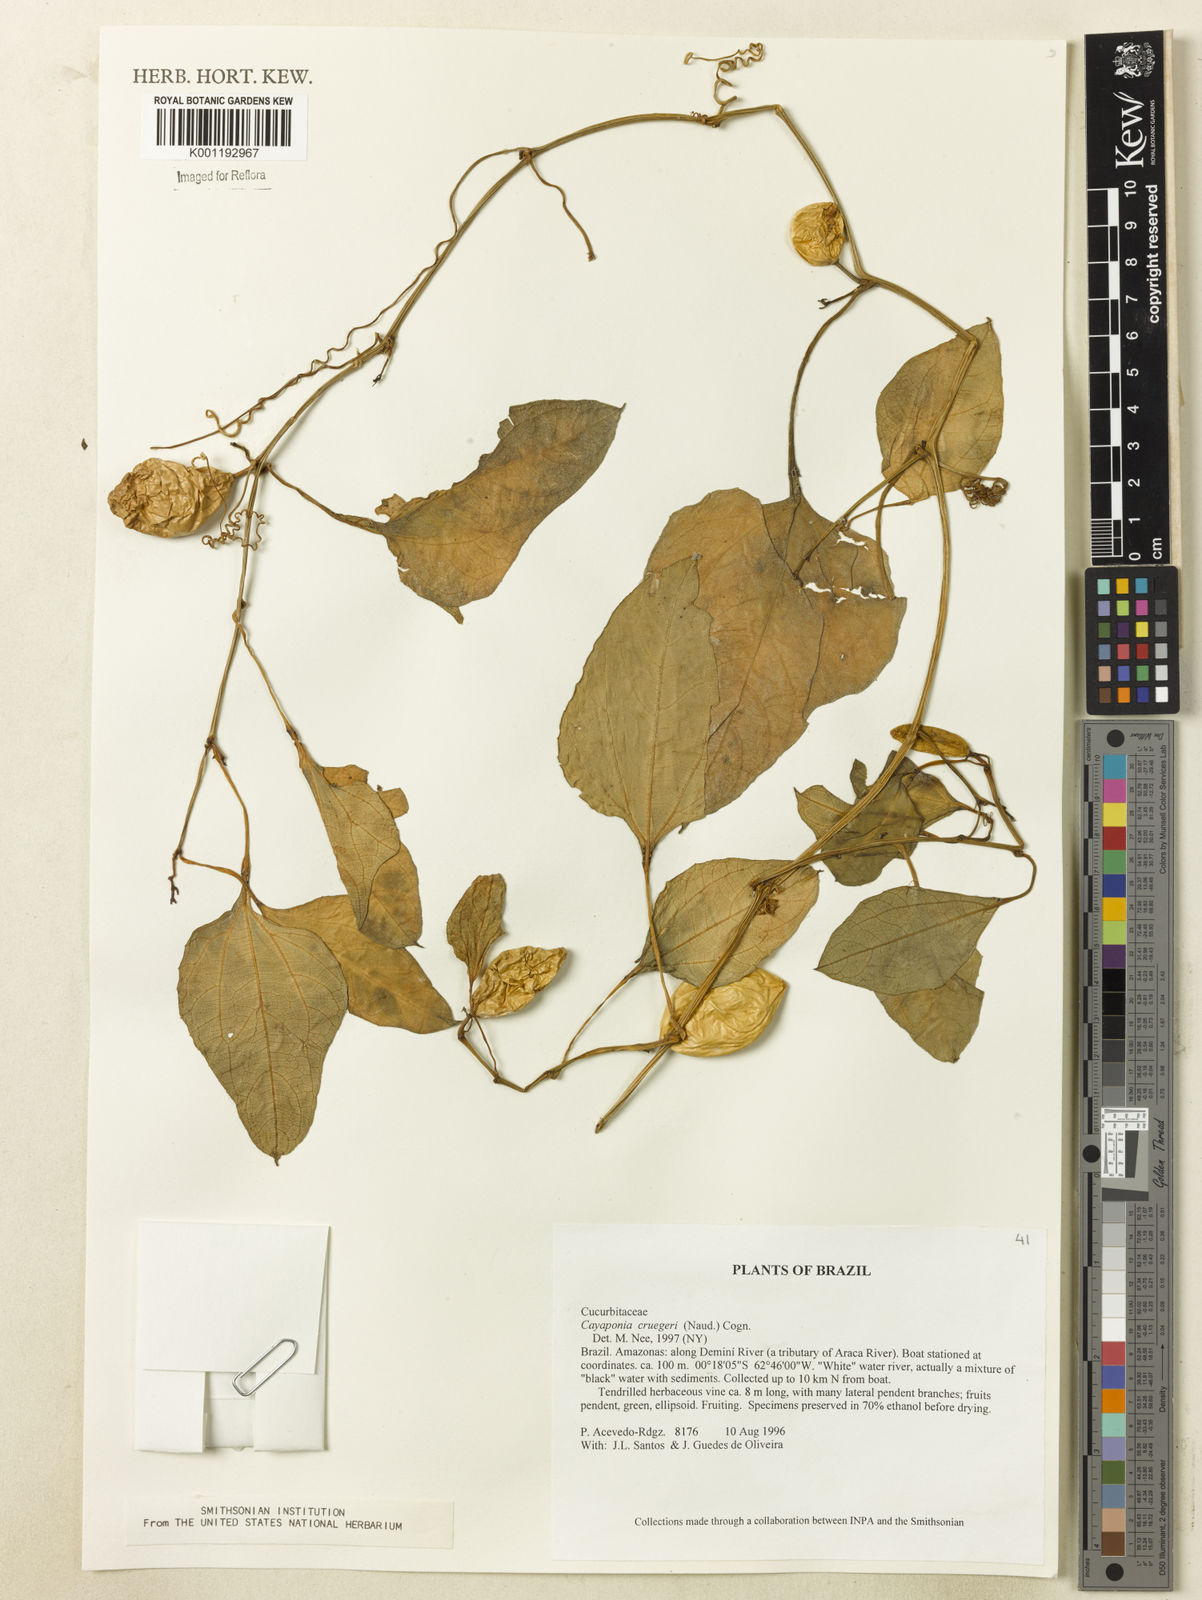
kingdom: Plantae
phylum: Tracheophyta
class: Magnoliopsida
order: Cucurbitales
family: Cucurbitaceae
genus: Cayaponia
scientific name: Cayaponia cruegeri
